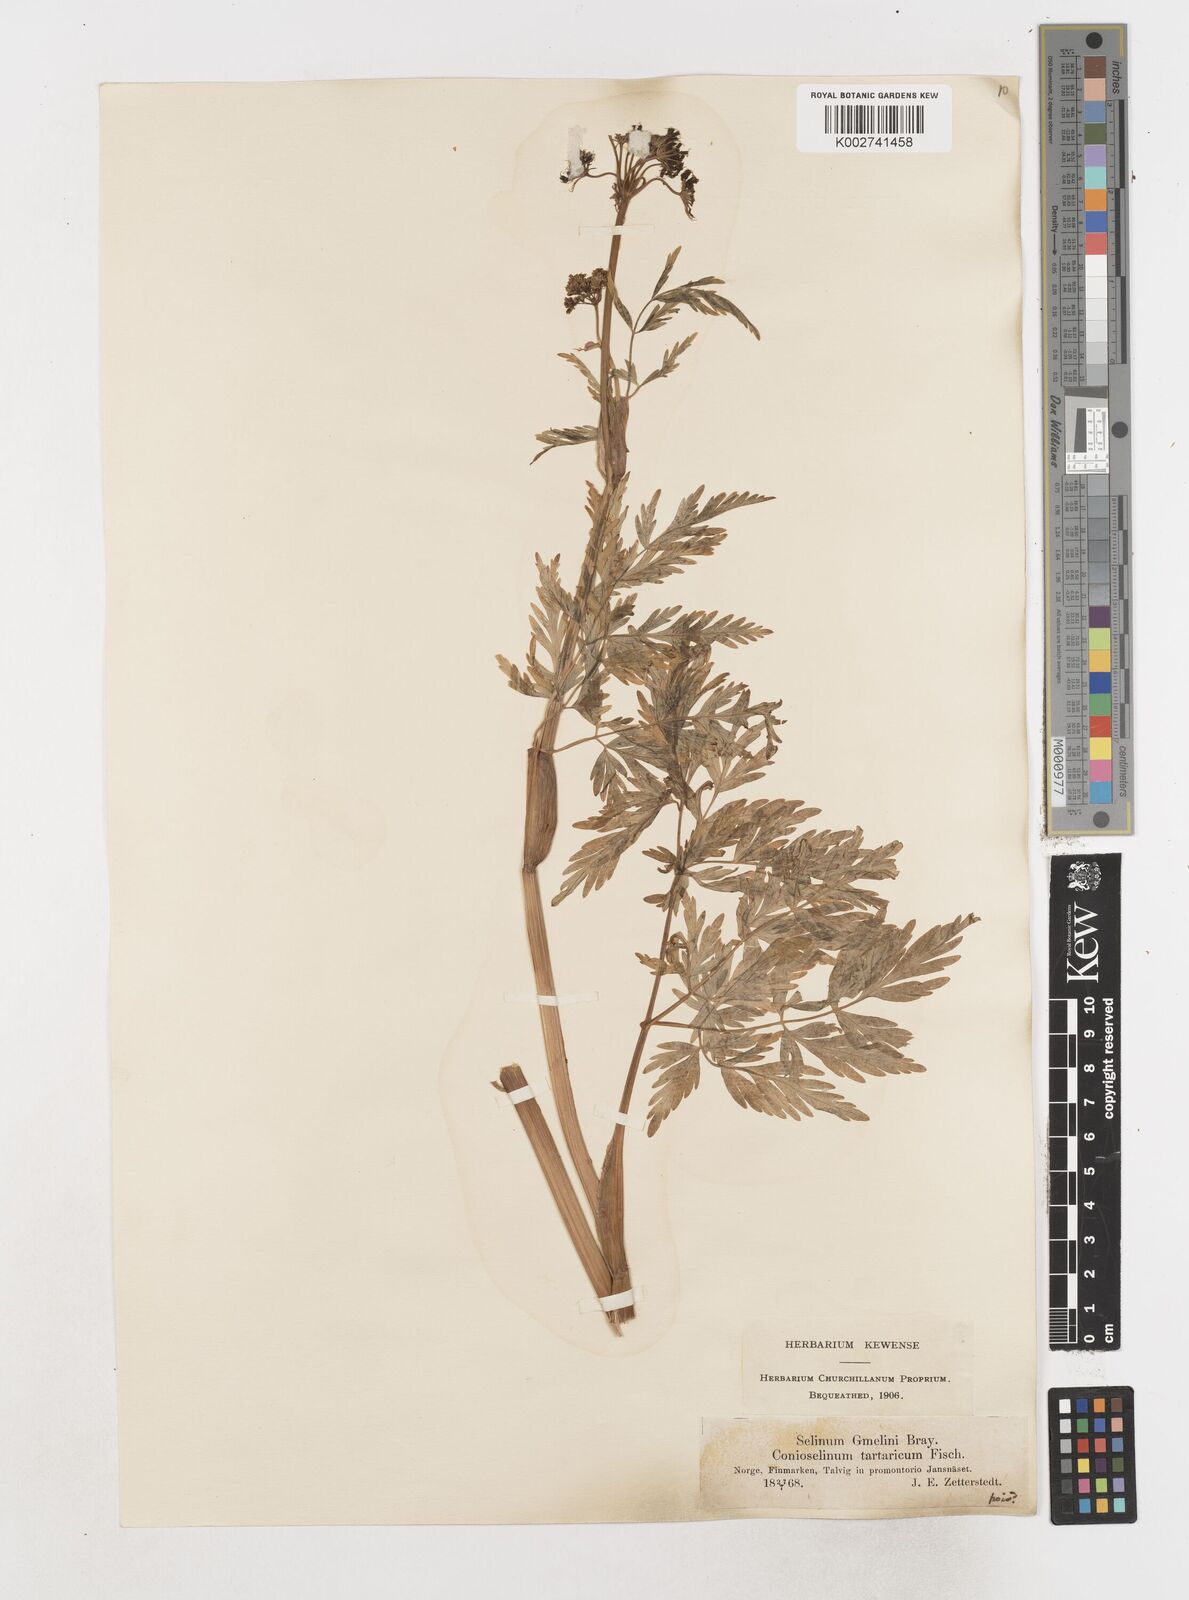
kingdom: Plantae
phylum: Tracheophyta
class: Magnoliopsida
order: Apiales
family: Apiaceae
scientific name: Apiaceae
